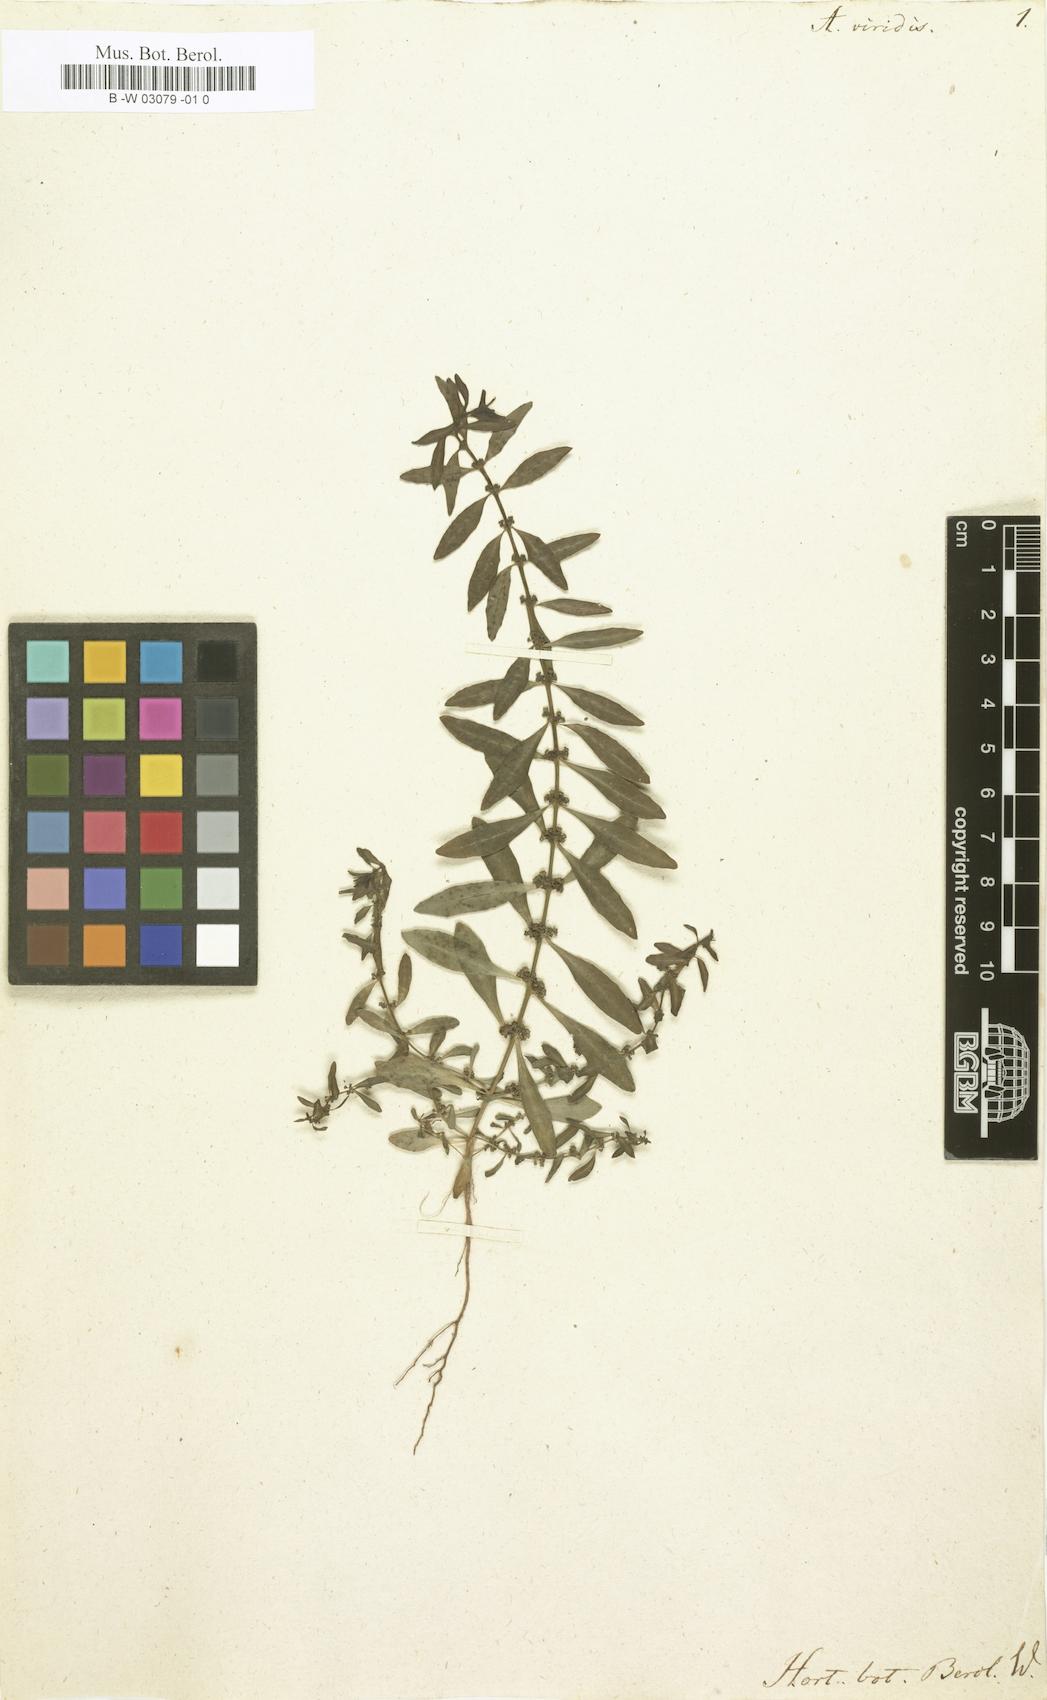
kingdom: Plantae
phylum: Tracheophyta
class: Magnoliopsida
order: Myrtales
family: Lythraceae
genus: Ammannia
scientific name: Ammannia baccifera
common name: Blistering ammania
